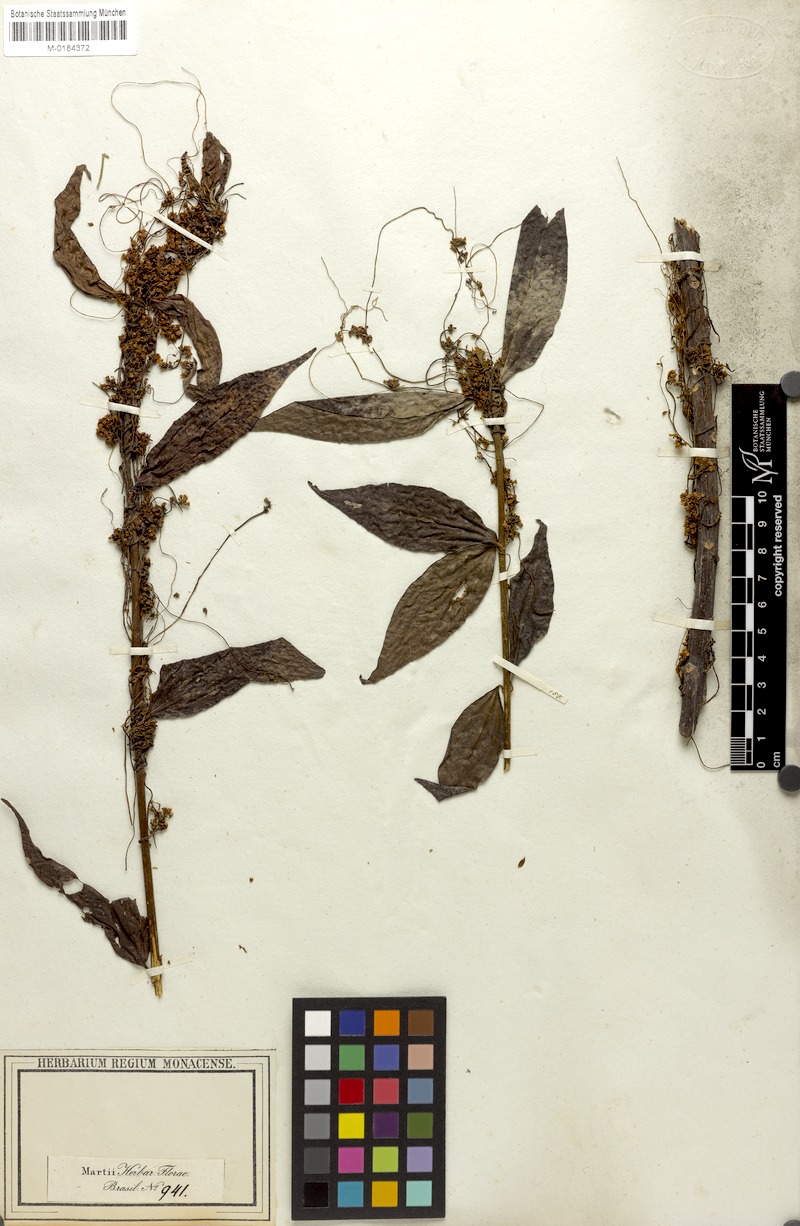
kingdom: Plantae
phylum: Tracheophyta
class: Magnoliopsida
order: Solanales
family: Convolvulaceae
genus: Cuscuta
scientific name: Cuscuta racemosa
